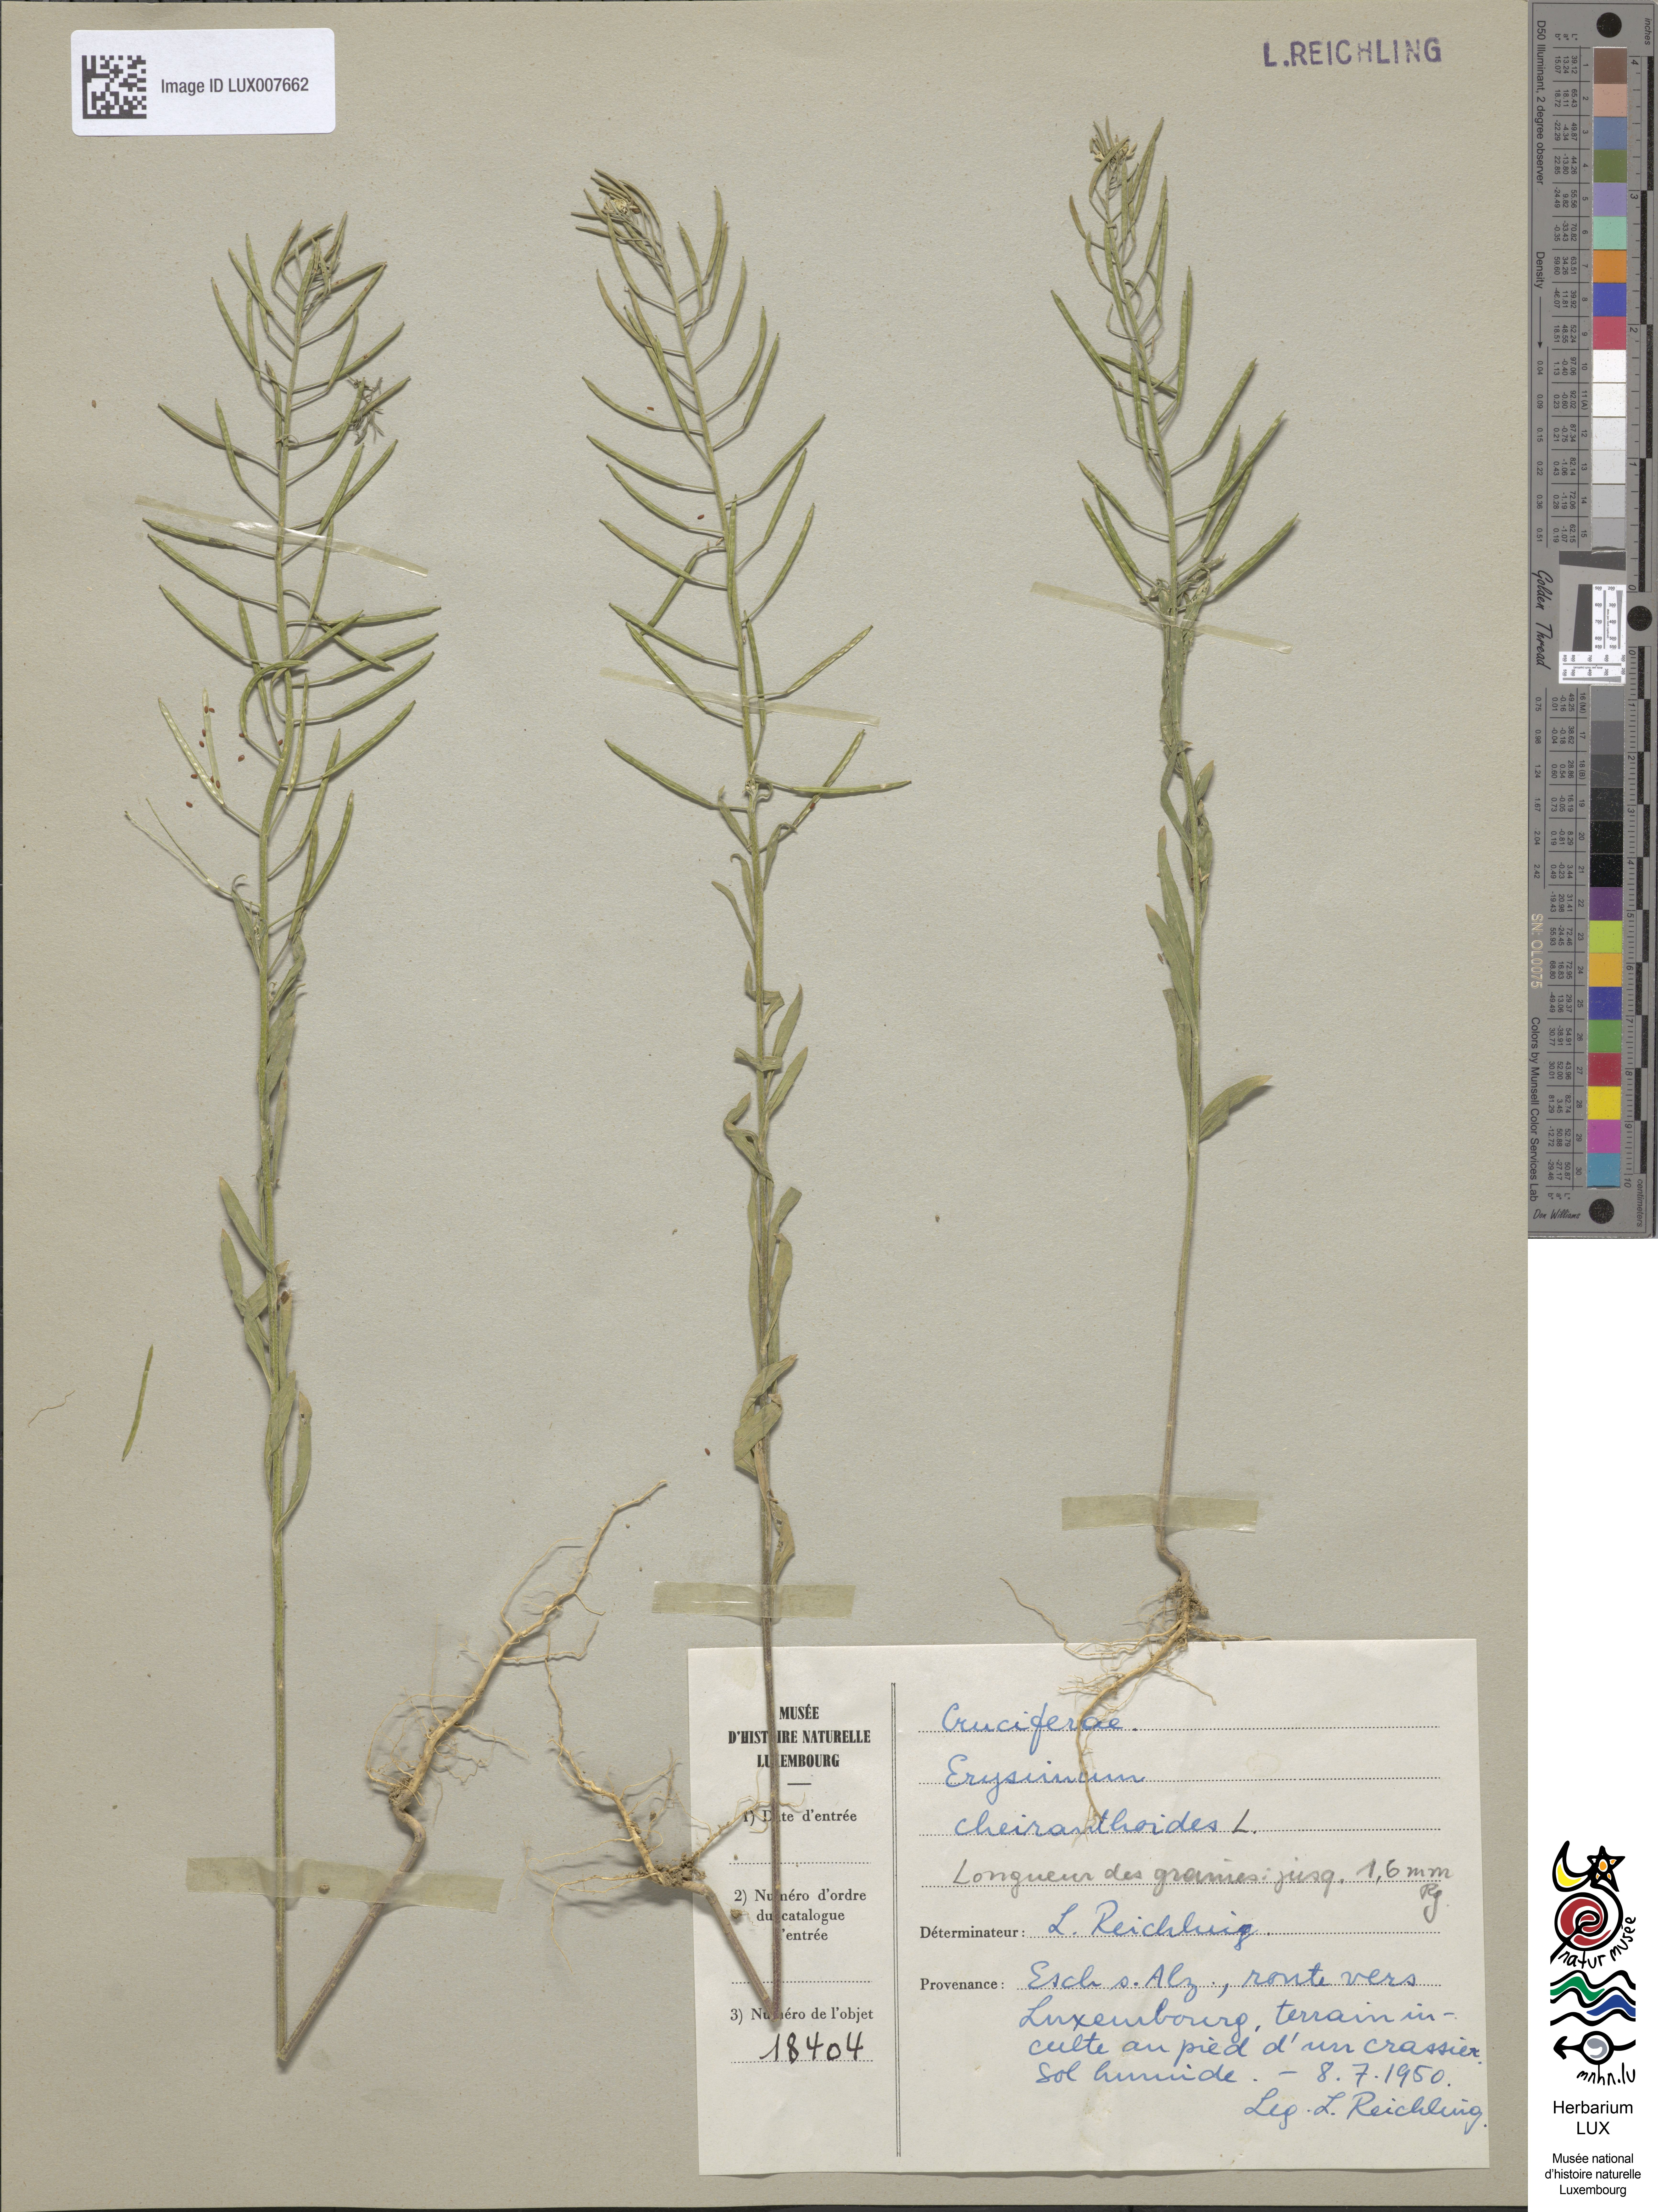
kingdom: Plantae
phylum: Tracheophyta
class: Magnoliopsida
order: Brassicales
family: Brassicaceae
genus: Erysimum
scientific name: Erysimum cheiranthoides
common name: Treacle mustard
